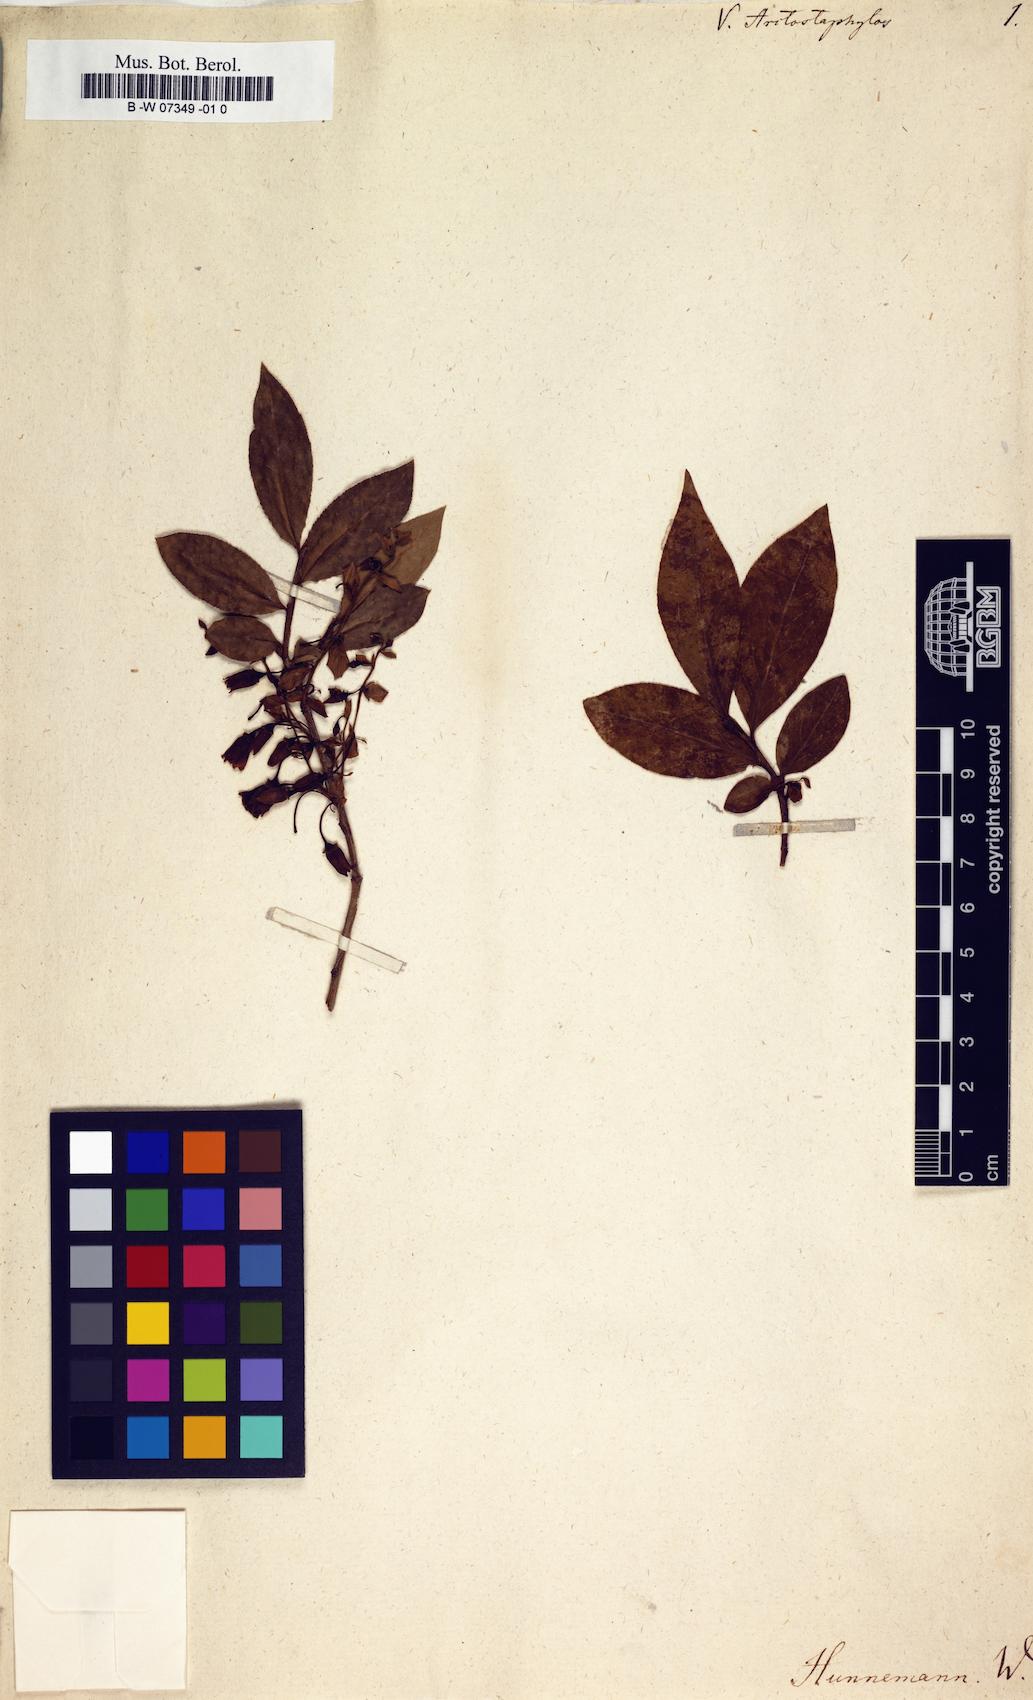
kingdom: Plantae
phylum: Tracheophyta
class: Magnoliopsida
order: Ericales
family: Ericaceae
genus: Vaccinium
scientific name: Vaccinium arctostaphylos
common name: Caucasian whortleberry
